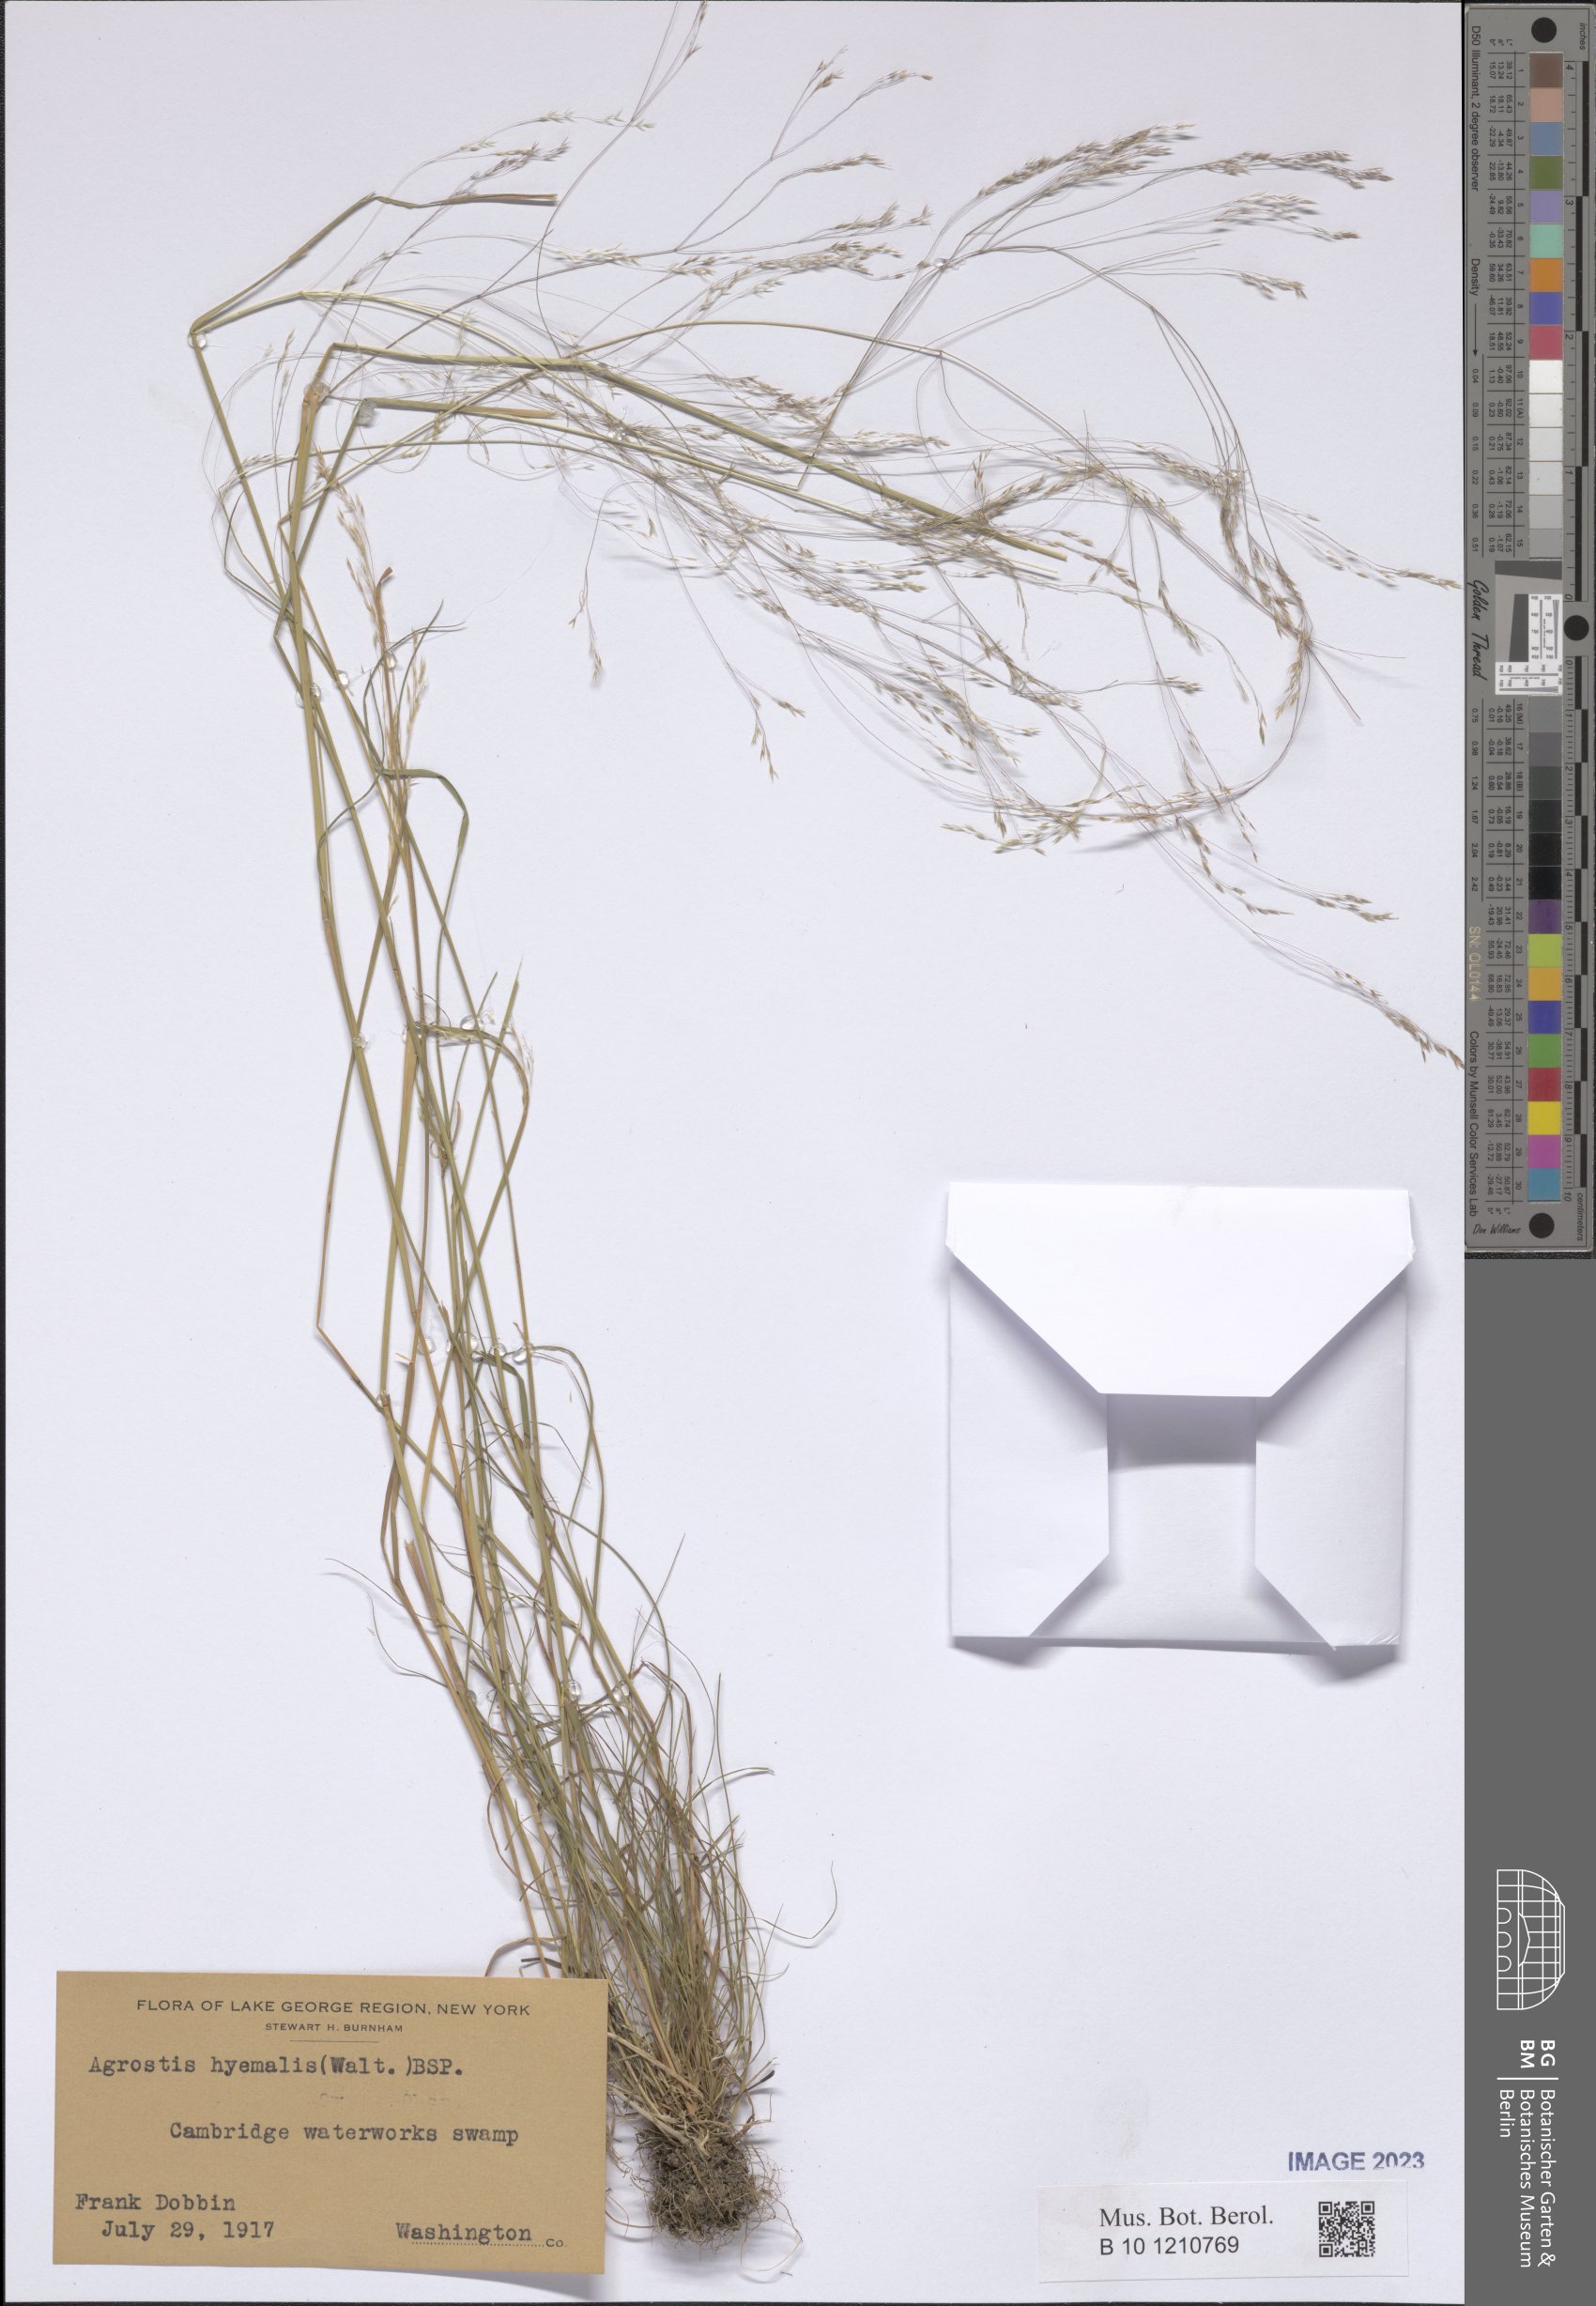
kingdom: Plantae
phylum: Tracheophyta
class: Liliopsida
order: Poales
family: Poaceae
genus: Agrostis
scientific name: Agrostis hyemalis
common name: Small bent
